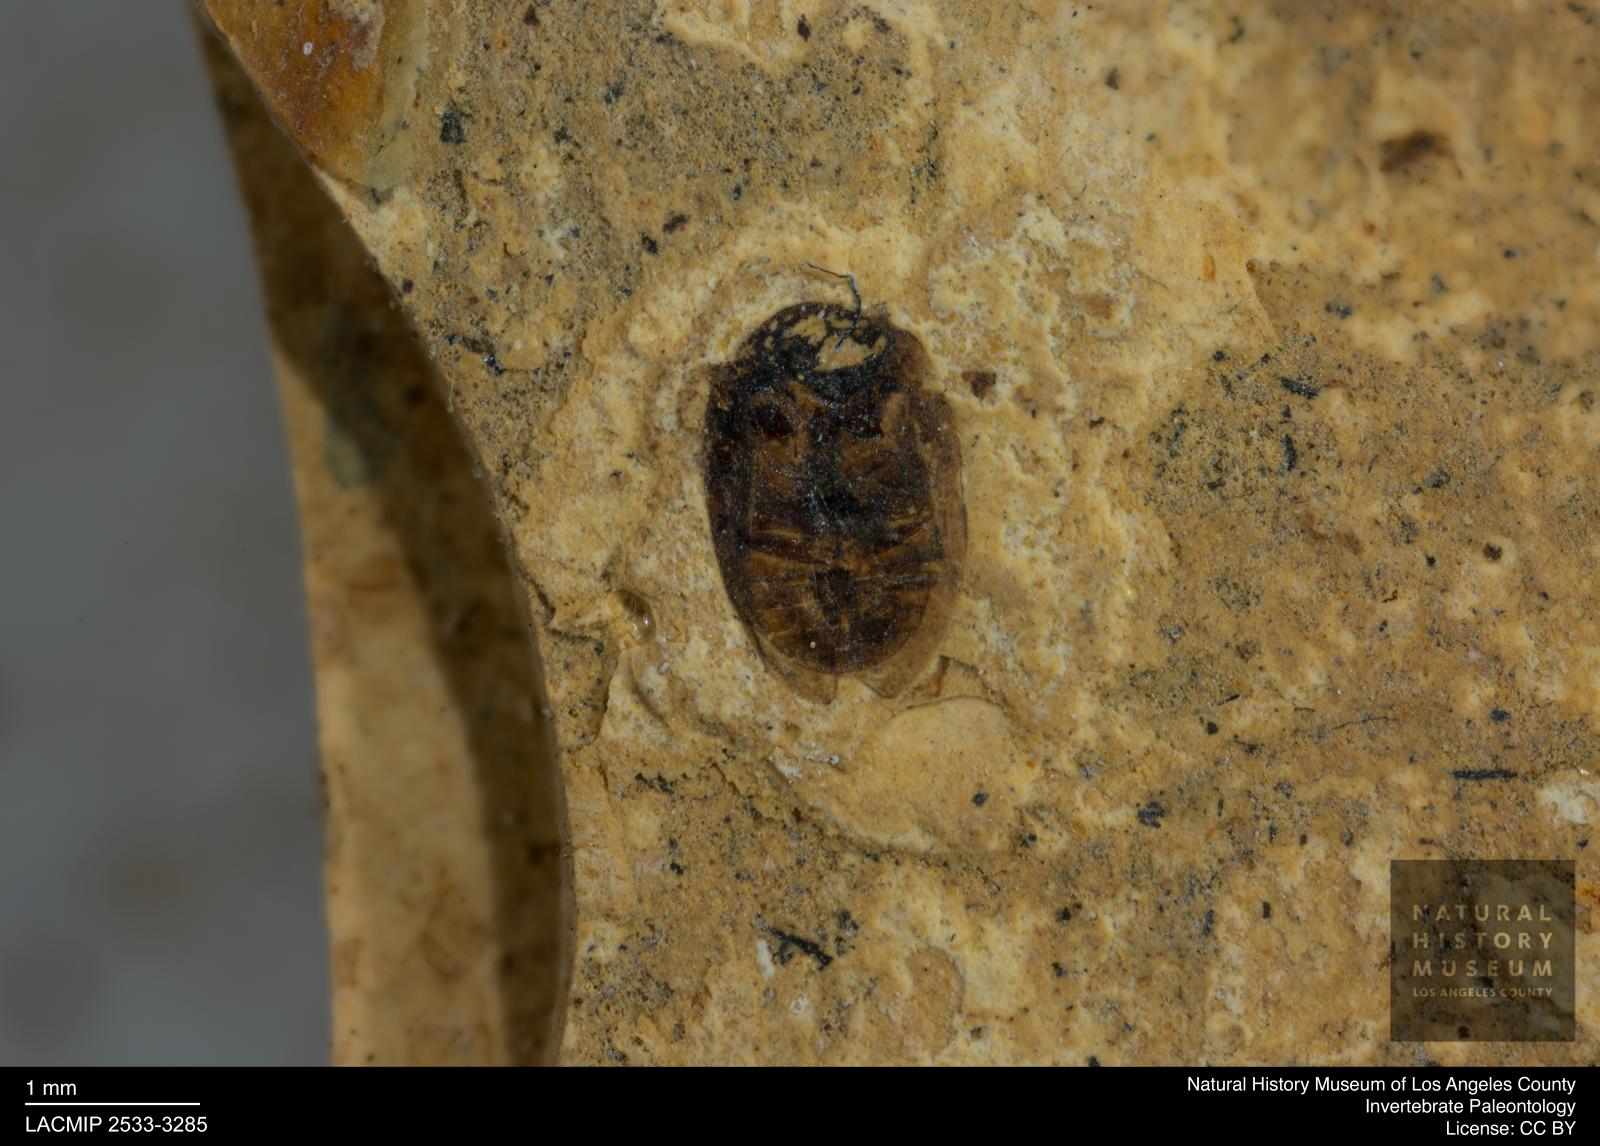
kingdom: Animalia
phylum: Arthropoda
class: Insecta
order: Coleoptera
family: Hydrophilidae
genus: Paracymus
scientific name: Paracymus excitatus
